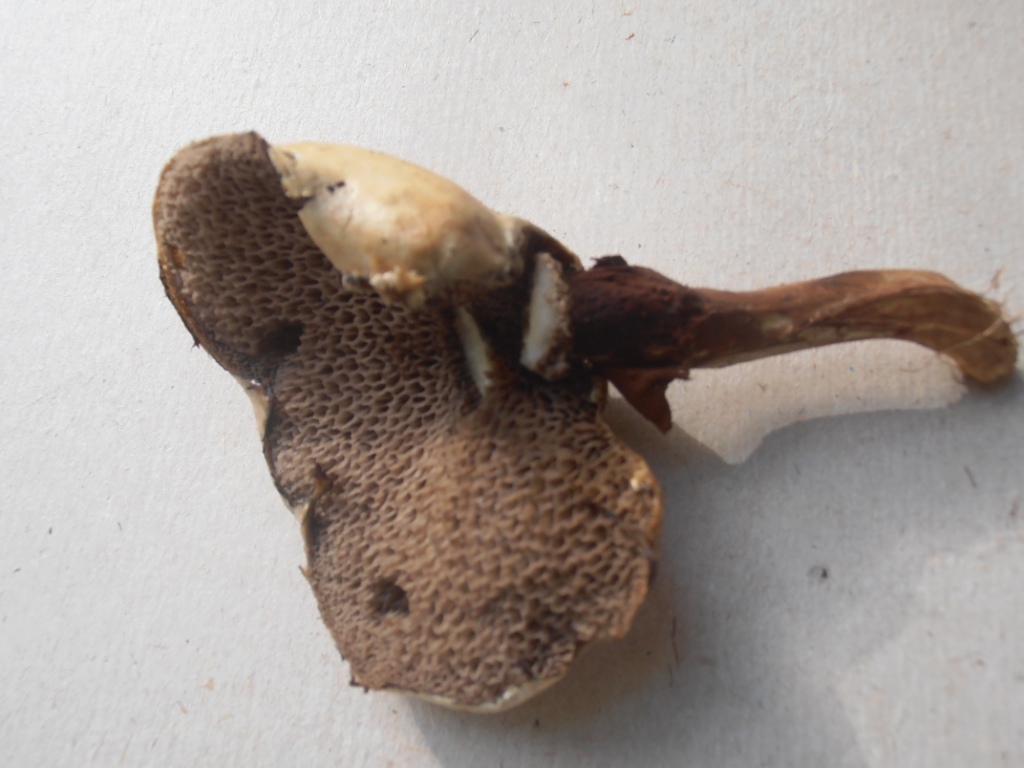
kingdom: Fungi
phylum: Basidiomycota
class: Agaricomycetes
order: Boletales
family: Suillaceae
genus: Suillus
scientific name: Suillus viscidus
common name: olivengrå slimrørhat
